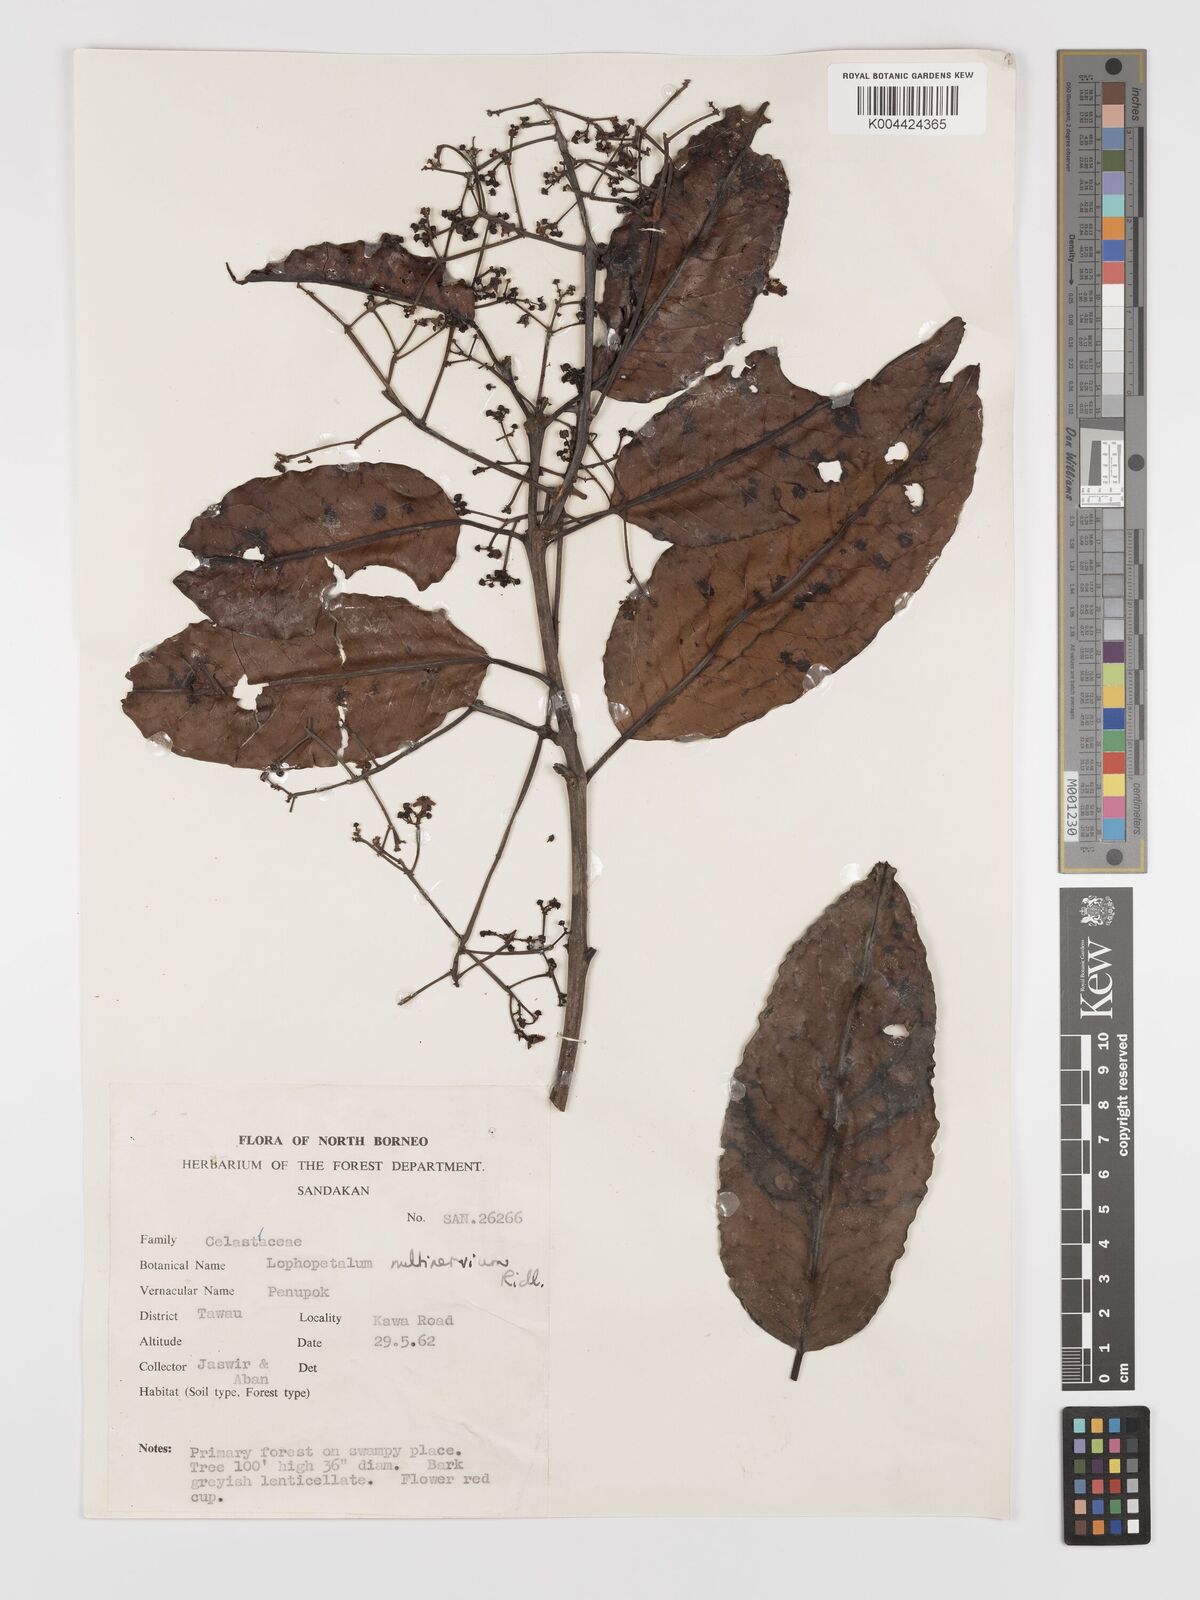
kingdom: Plantae
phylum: Tracheophyta
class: Magnoliopsida
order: Celastrales
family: Celastraceae
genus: Lophopetalum
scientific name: Lophopetalum multinervium
